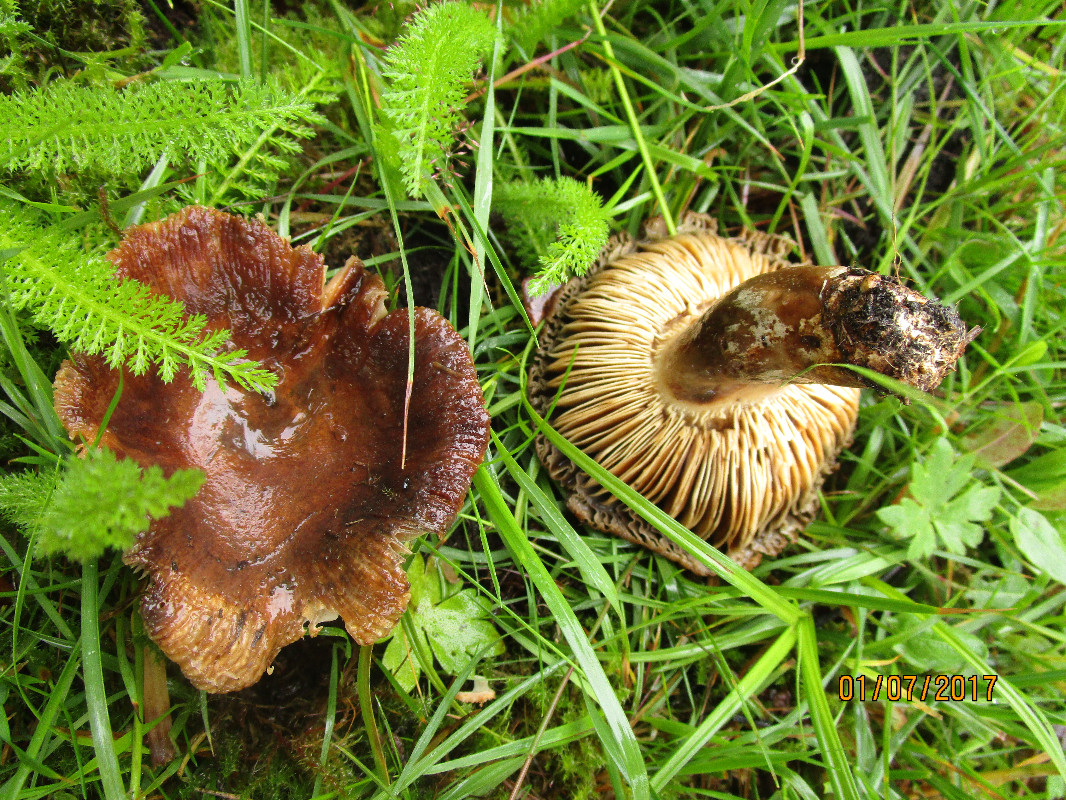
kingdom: Fungi
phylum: Basidiomycota
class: Agaricomycetes
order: Russulales
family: Russulaceae
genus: Russula
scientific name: Russula sororia
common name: brun kam-skørhat
